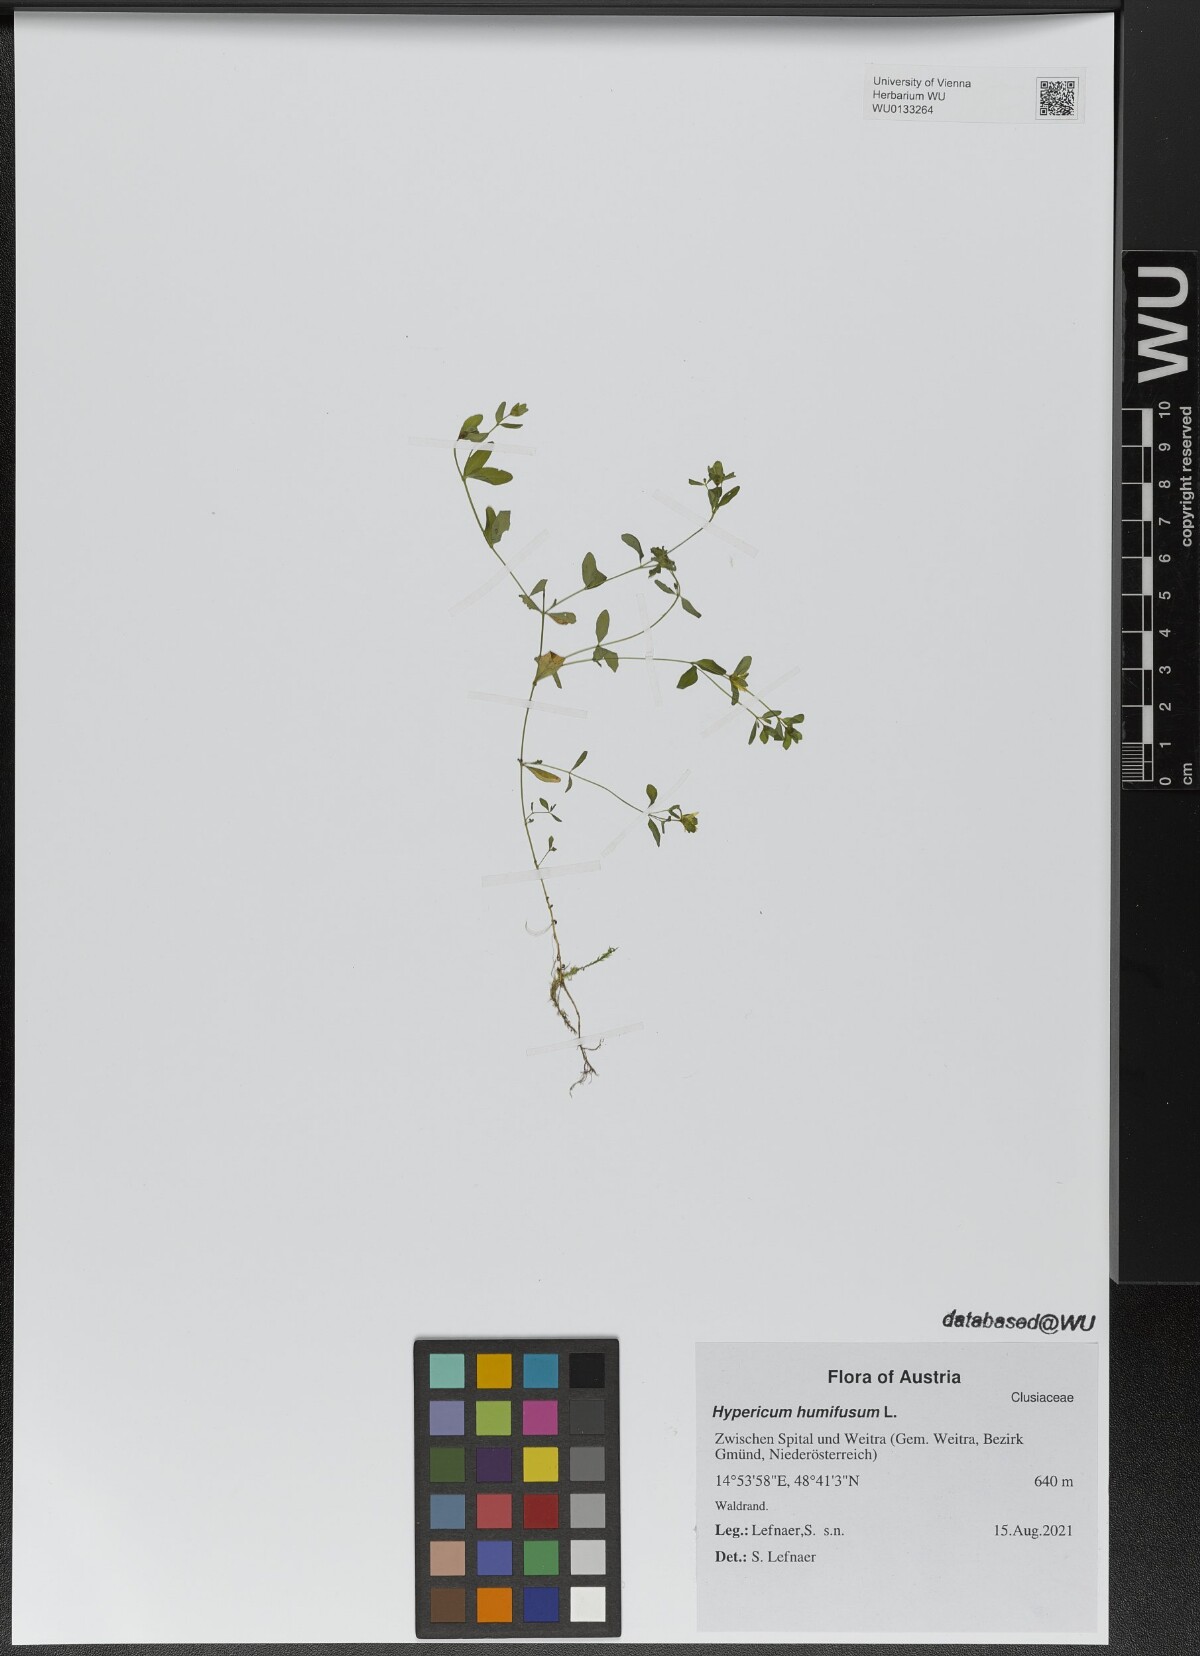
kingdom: Plantae
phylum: Tracheophyta
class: Magnoliopsida
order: Malpighiales
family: Hypericaceae
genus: Hypericum
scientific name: Hypericum humifusum
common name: Trailing st. john's-wort
